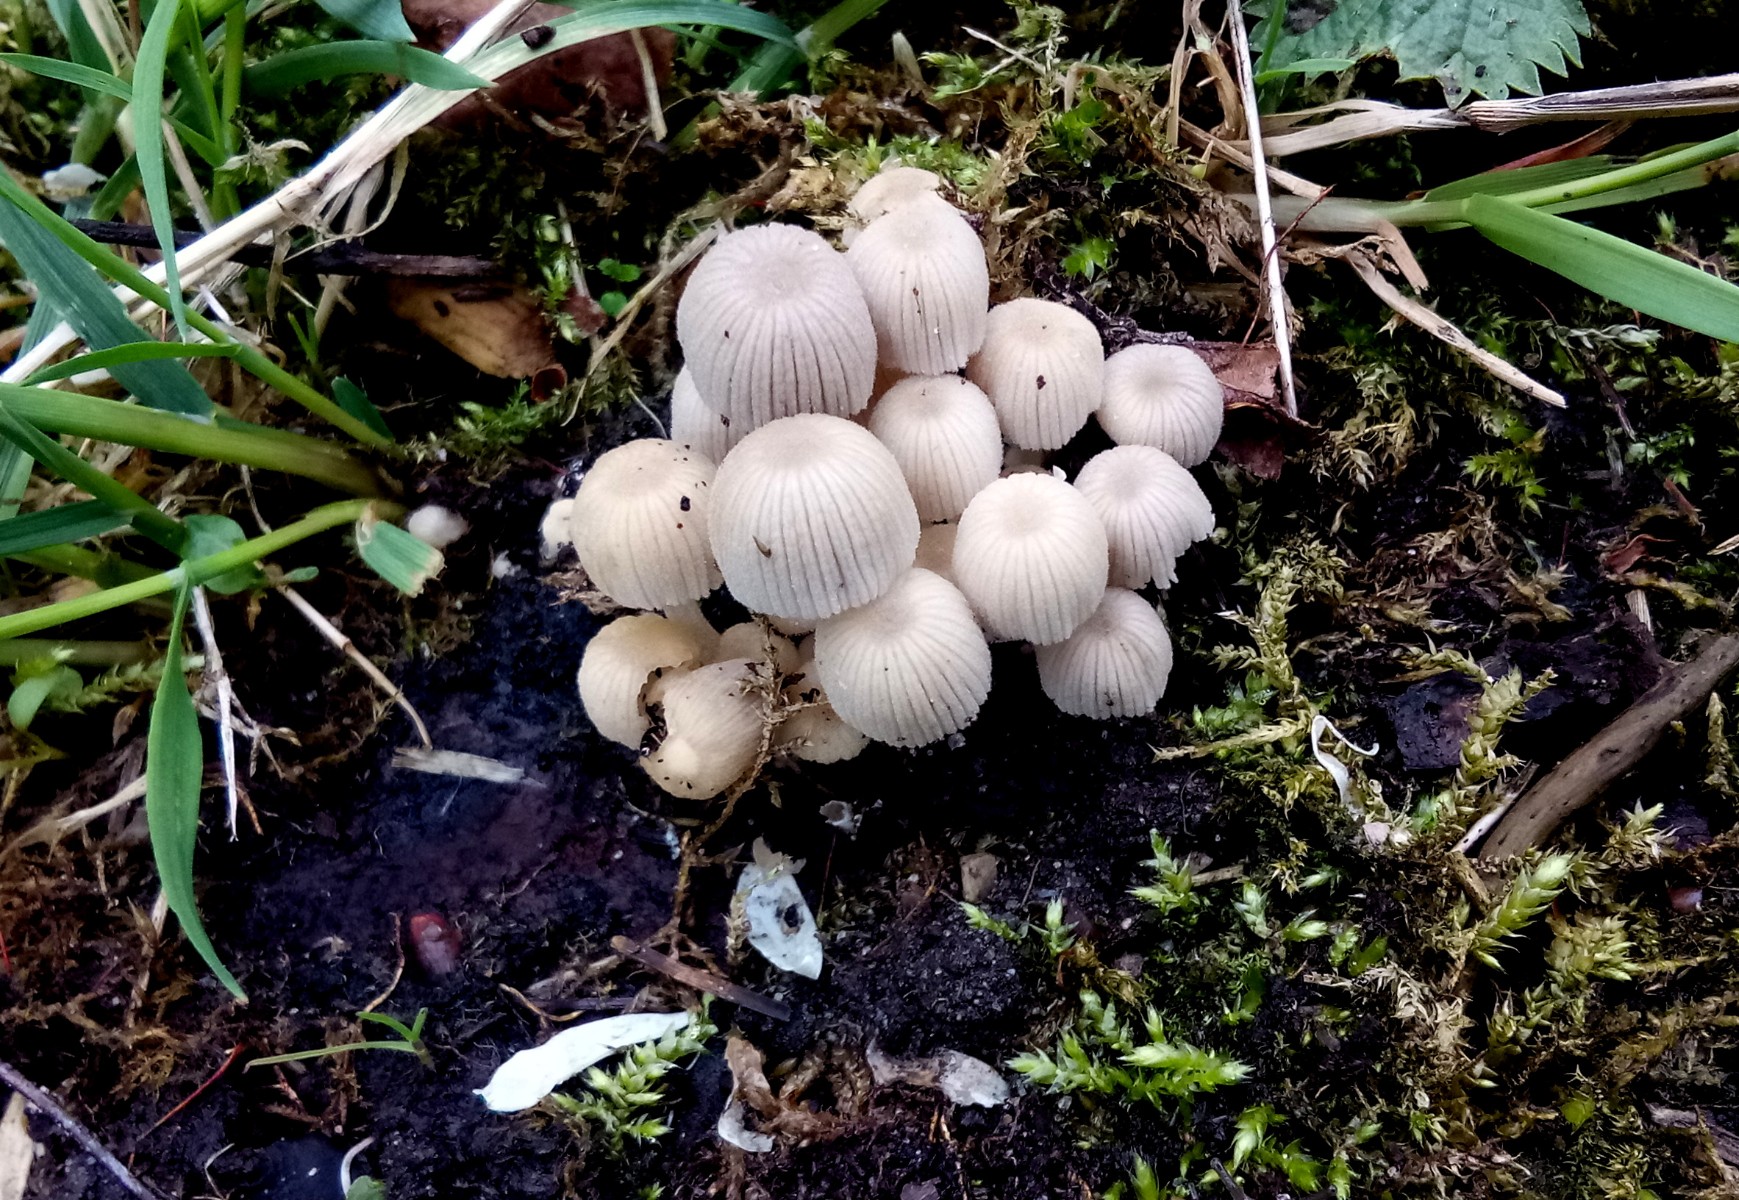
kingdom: Fungi
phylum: Basidiomycota
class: Agaricomycetes
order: Agaricales
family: Psathyrellaceae
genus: Coprinellus
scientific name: Coprinellus disseminatus
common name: bredsået blækhat
